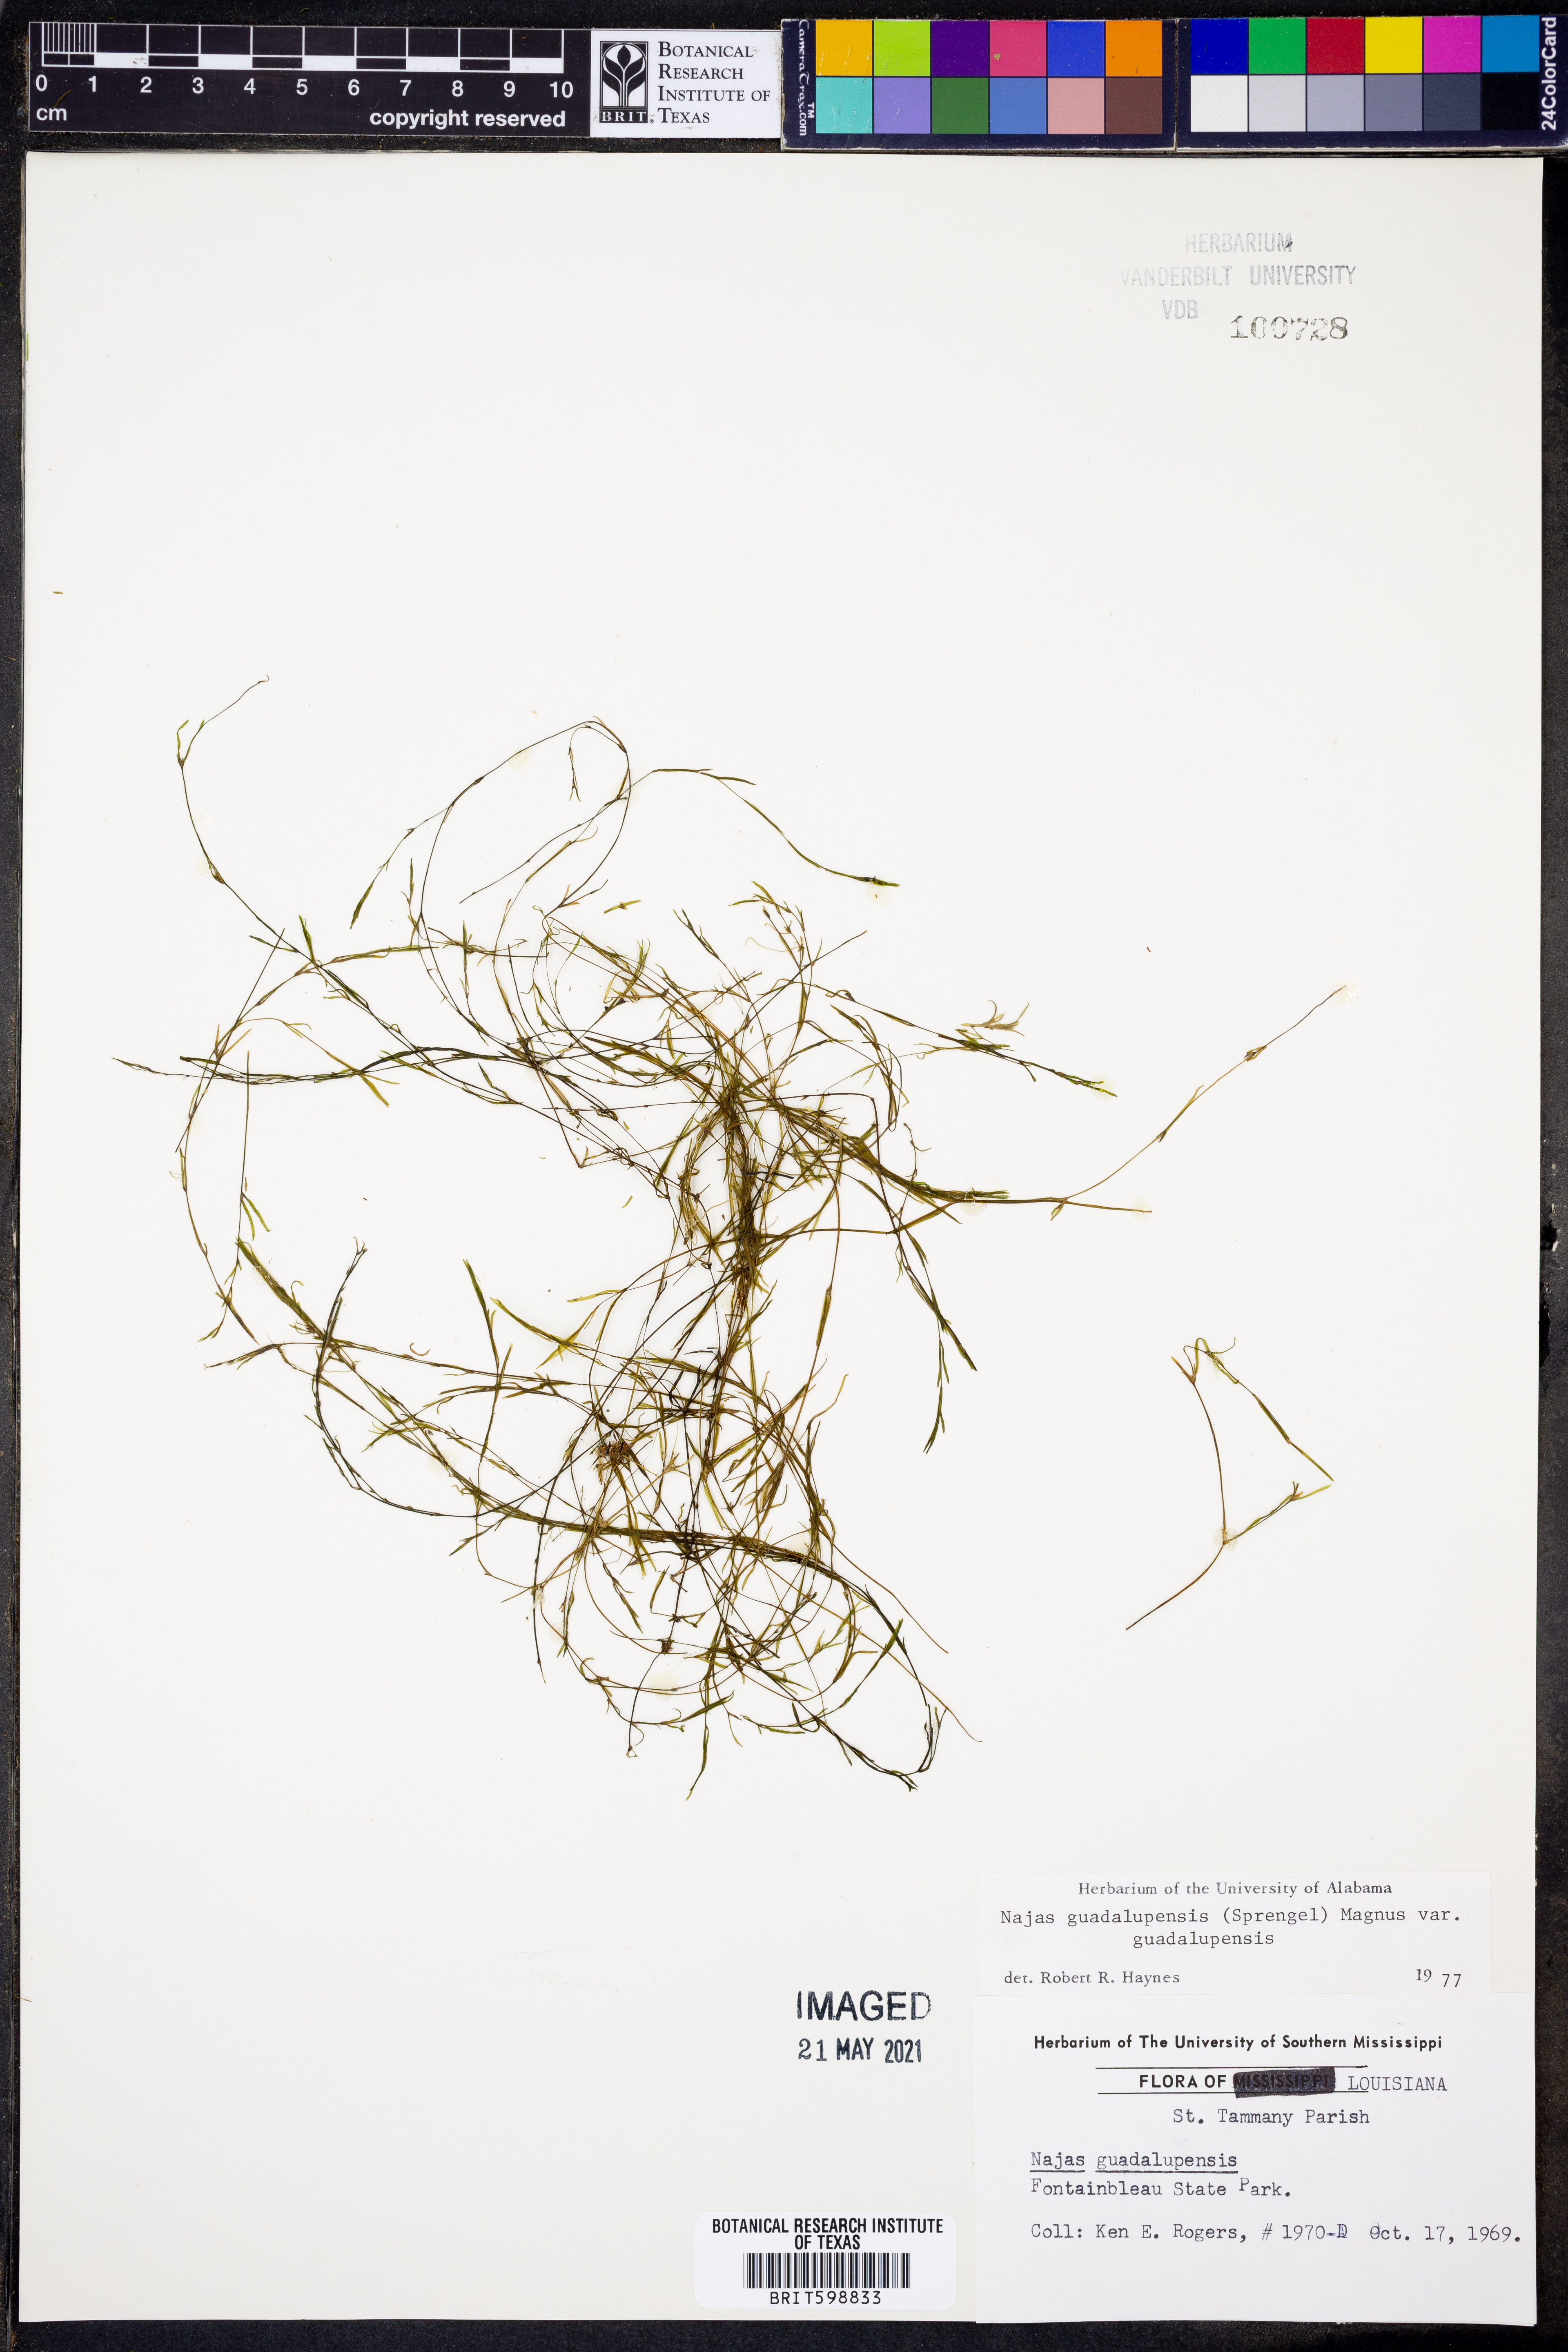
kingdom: Plantae
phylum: Tracheophyta
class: Liliopsida
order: Alismatales
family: Hydrocharitaceae
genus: Najas
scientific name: Najas guadalupensis
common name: Southern naiad
